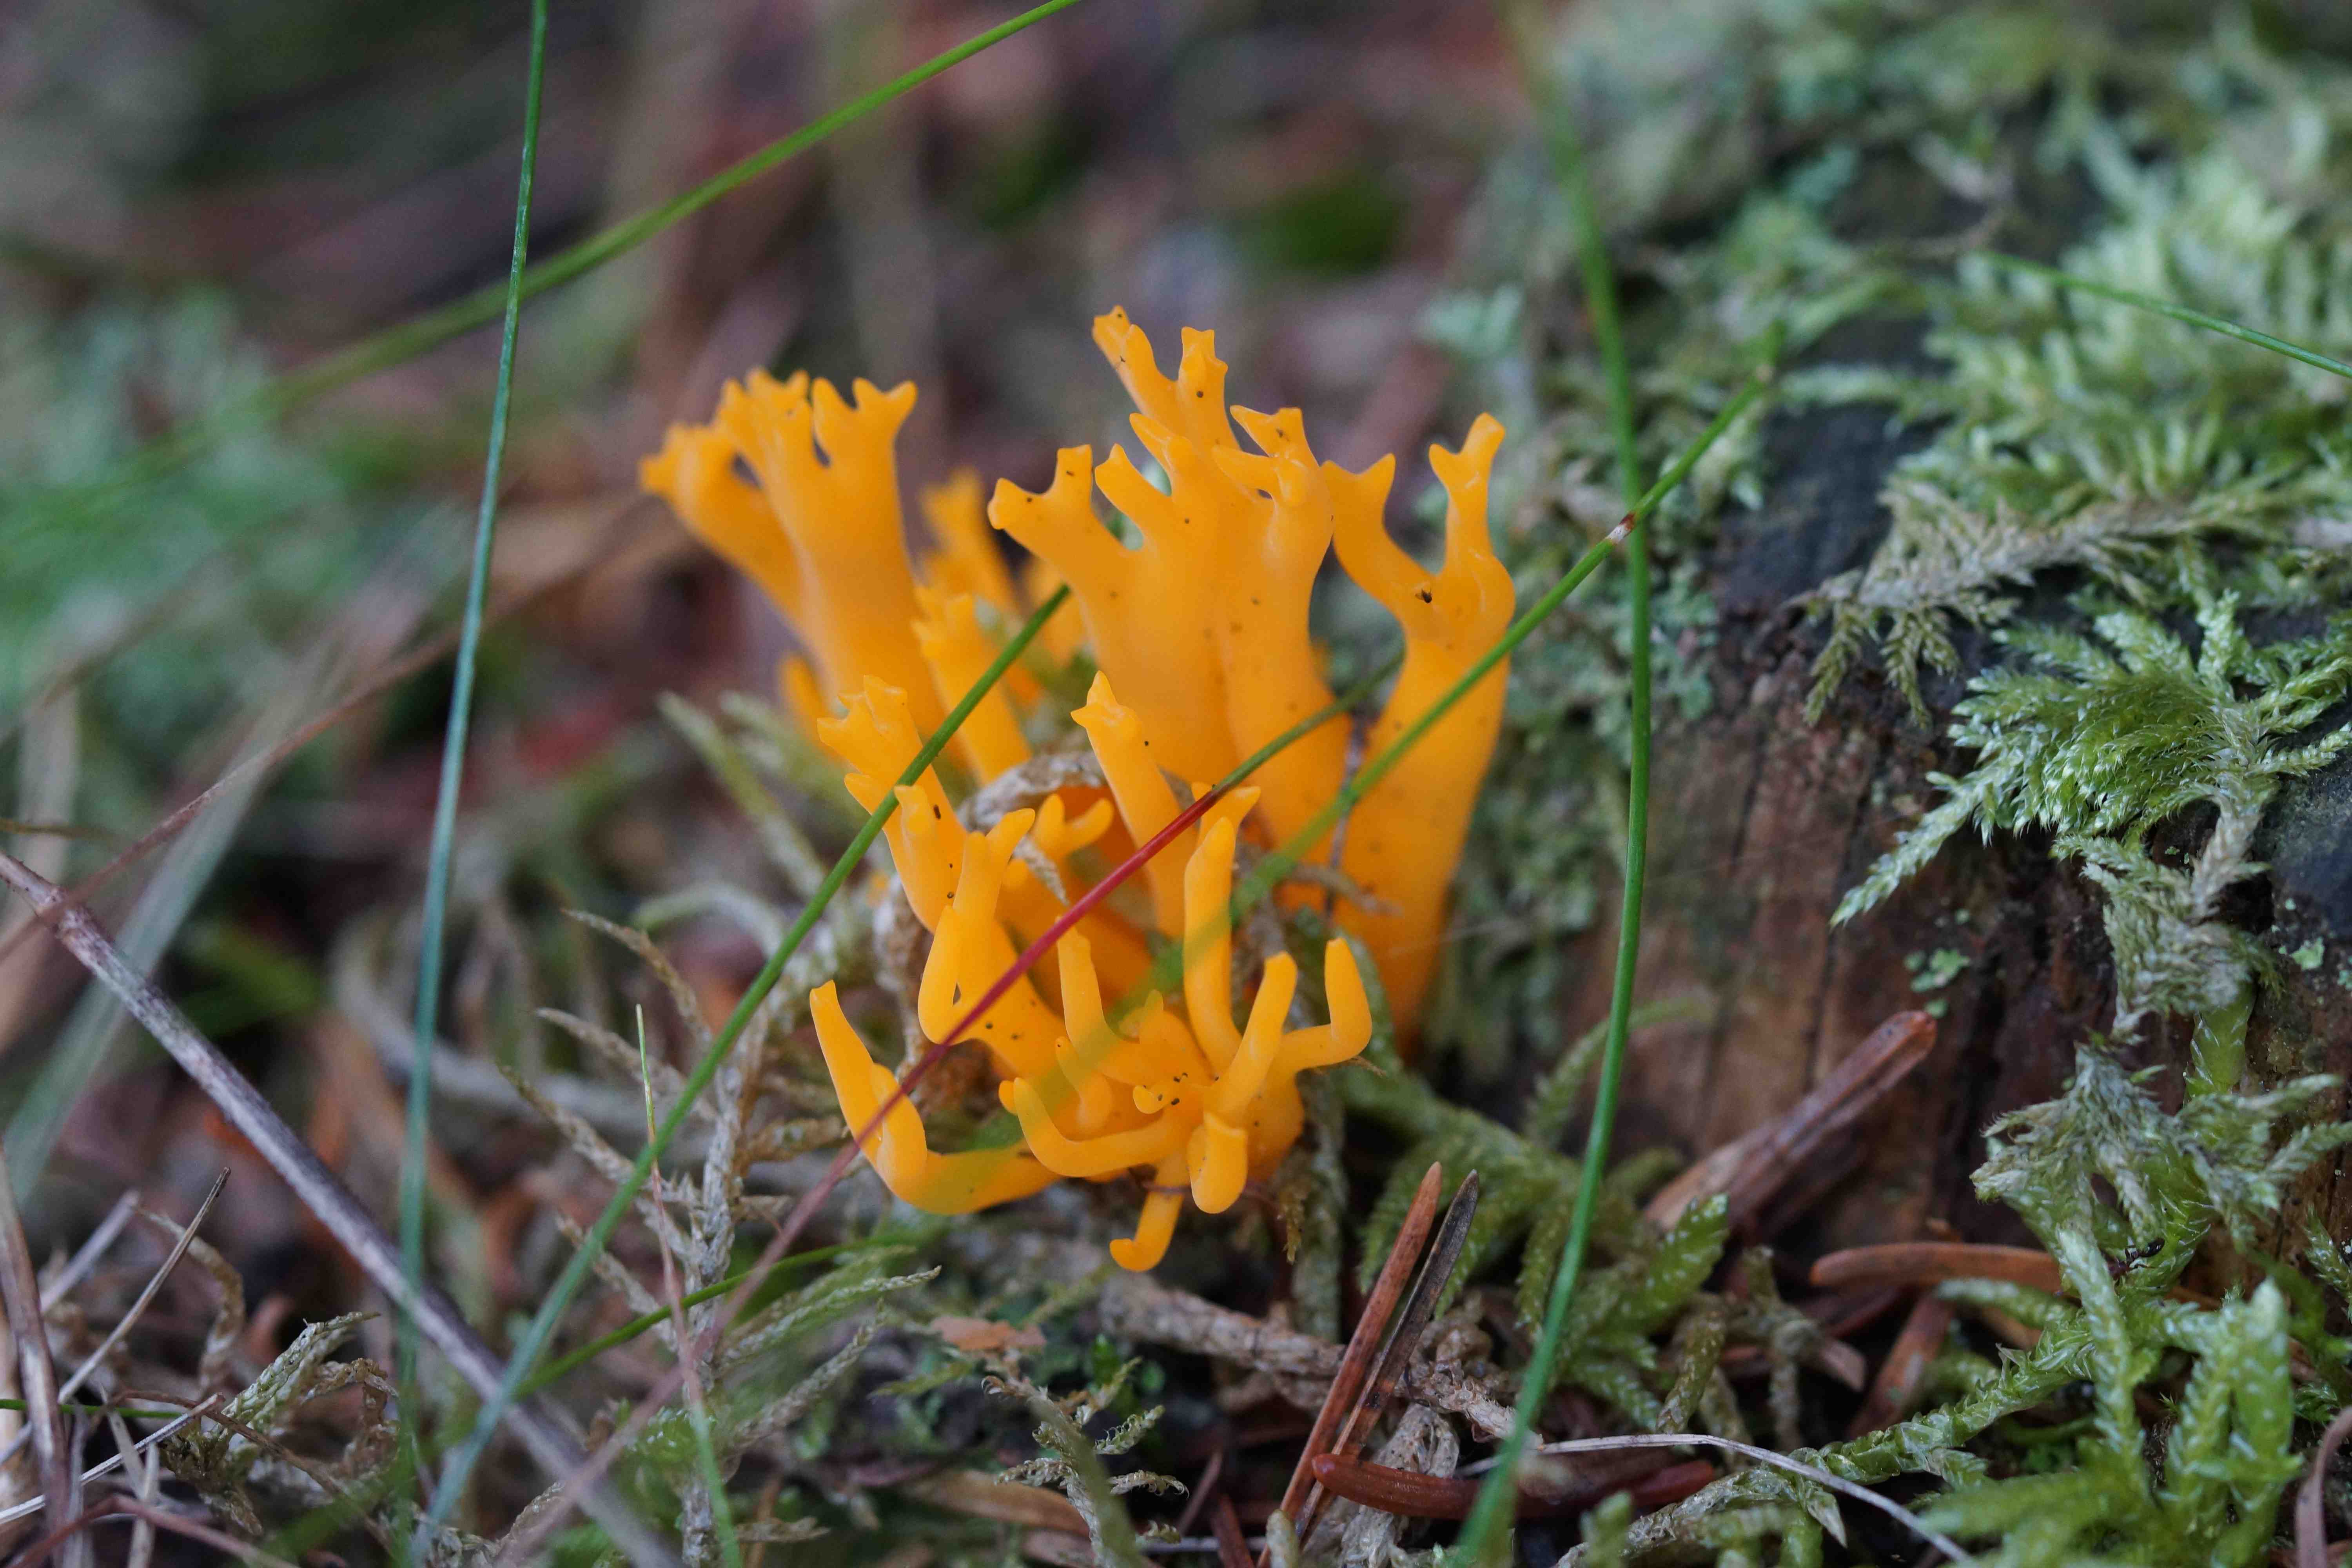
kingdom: Fungi
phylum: Basidiomycota
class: Dacrymycetes
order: Dacrymycetales
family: Dacrymycetaceae
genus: Calocera
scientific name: Calocera viscosa
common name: almindelig guldgaffel
